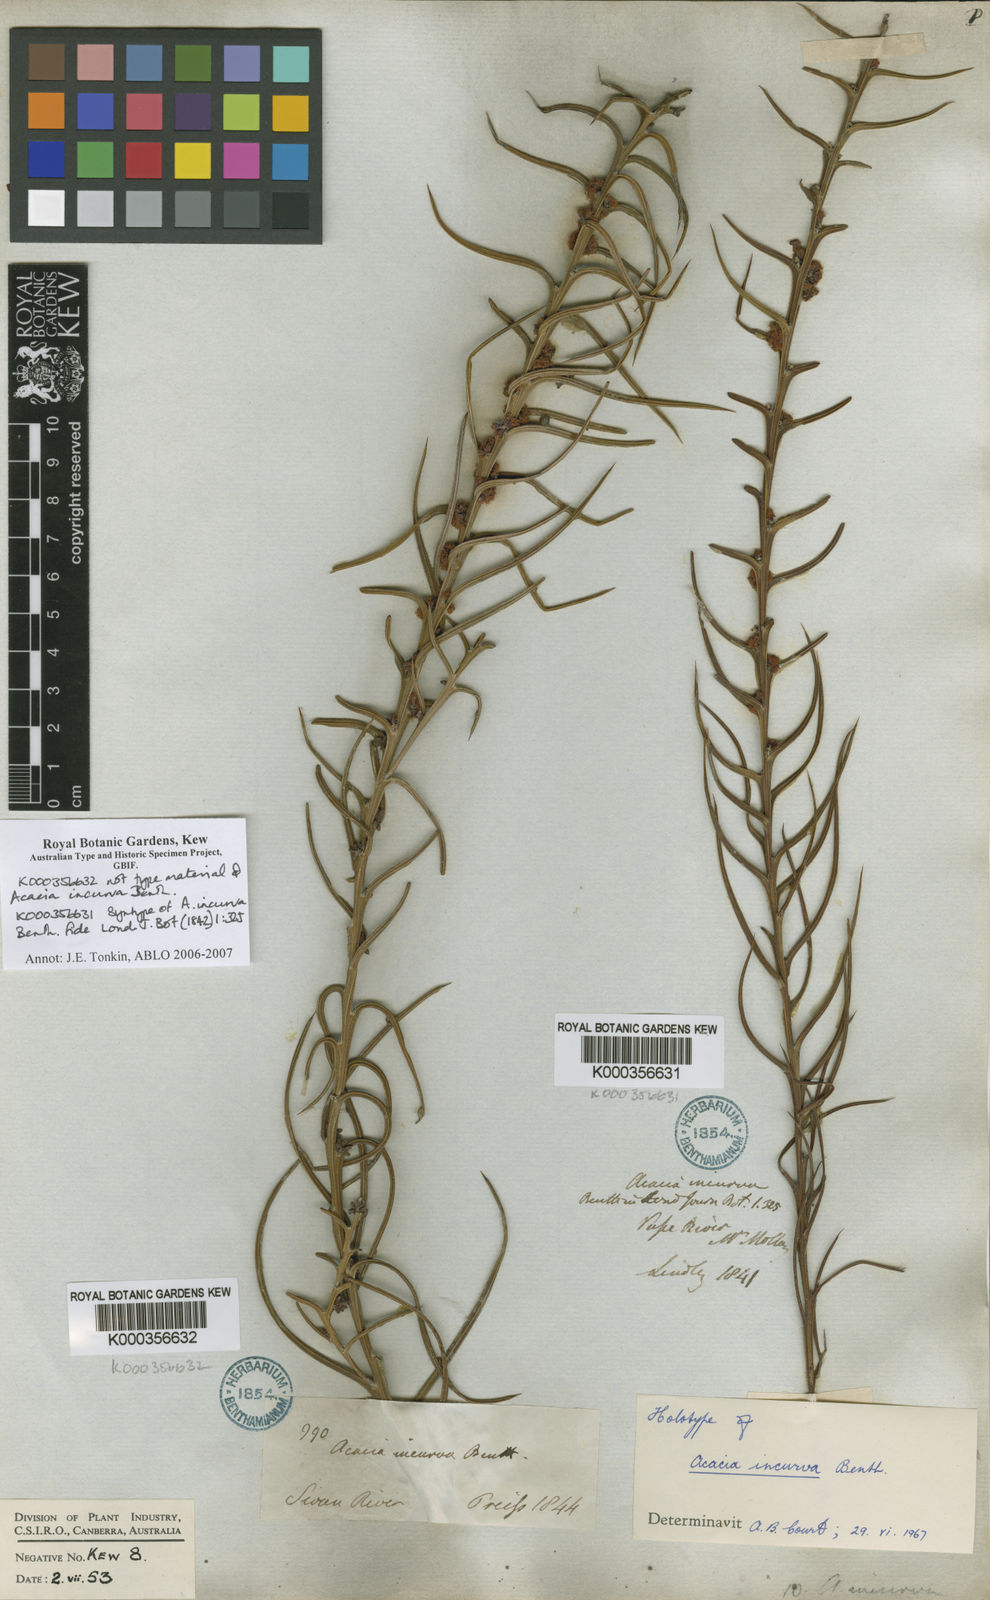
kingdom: Plantae
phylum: Tracheophyta
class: Magnoliopsida
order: Fabales
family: Fabaceae
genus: Acacia
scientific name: Acacia incurva
